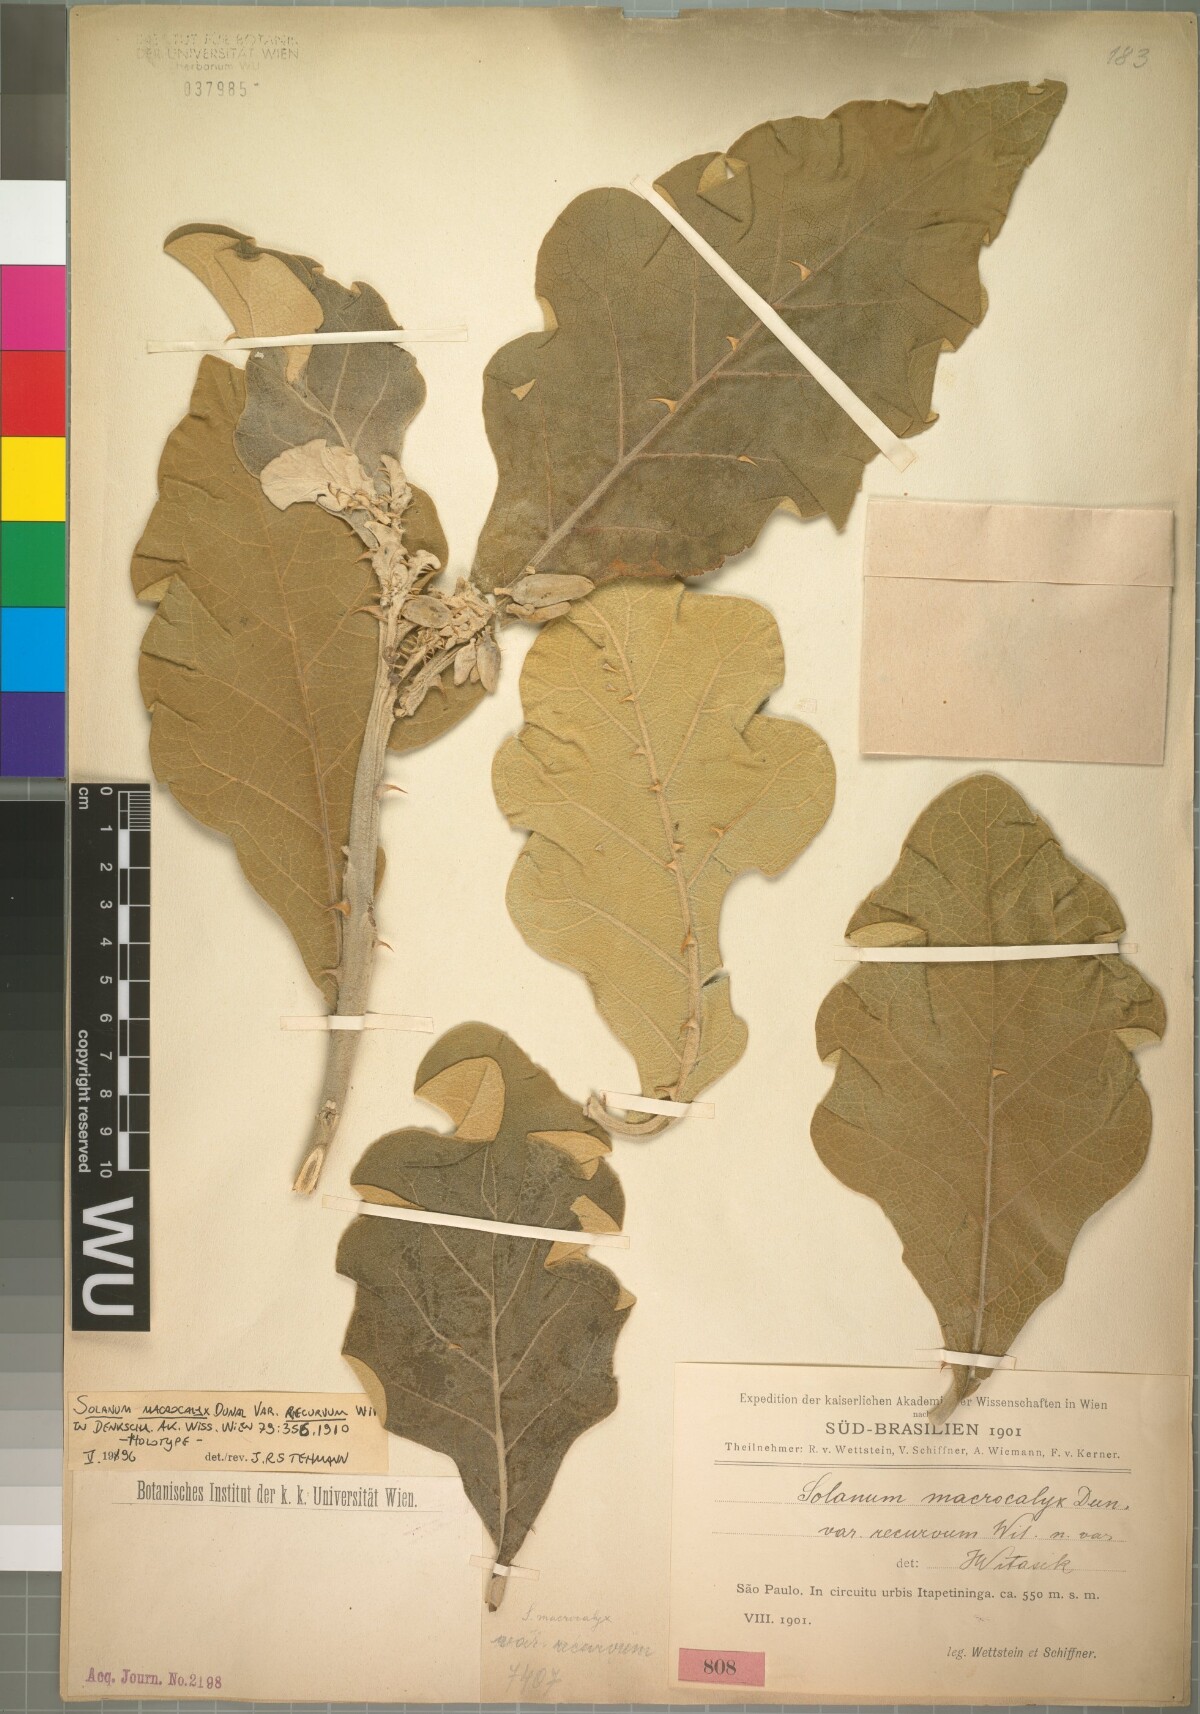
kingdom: Plantae
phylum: Tracheophyta
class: Magnoliopsida
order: Solanales
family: Solanaceae
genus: Solanum
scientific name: Solanum gomphodes
